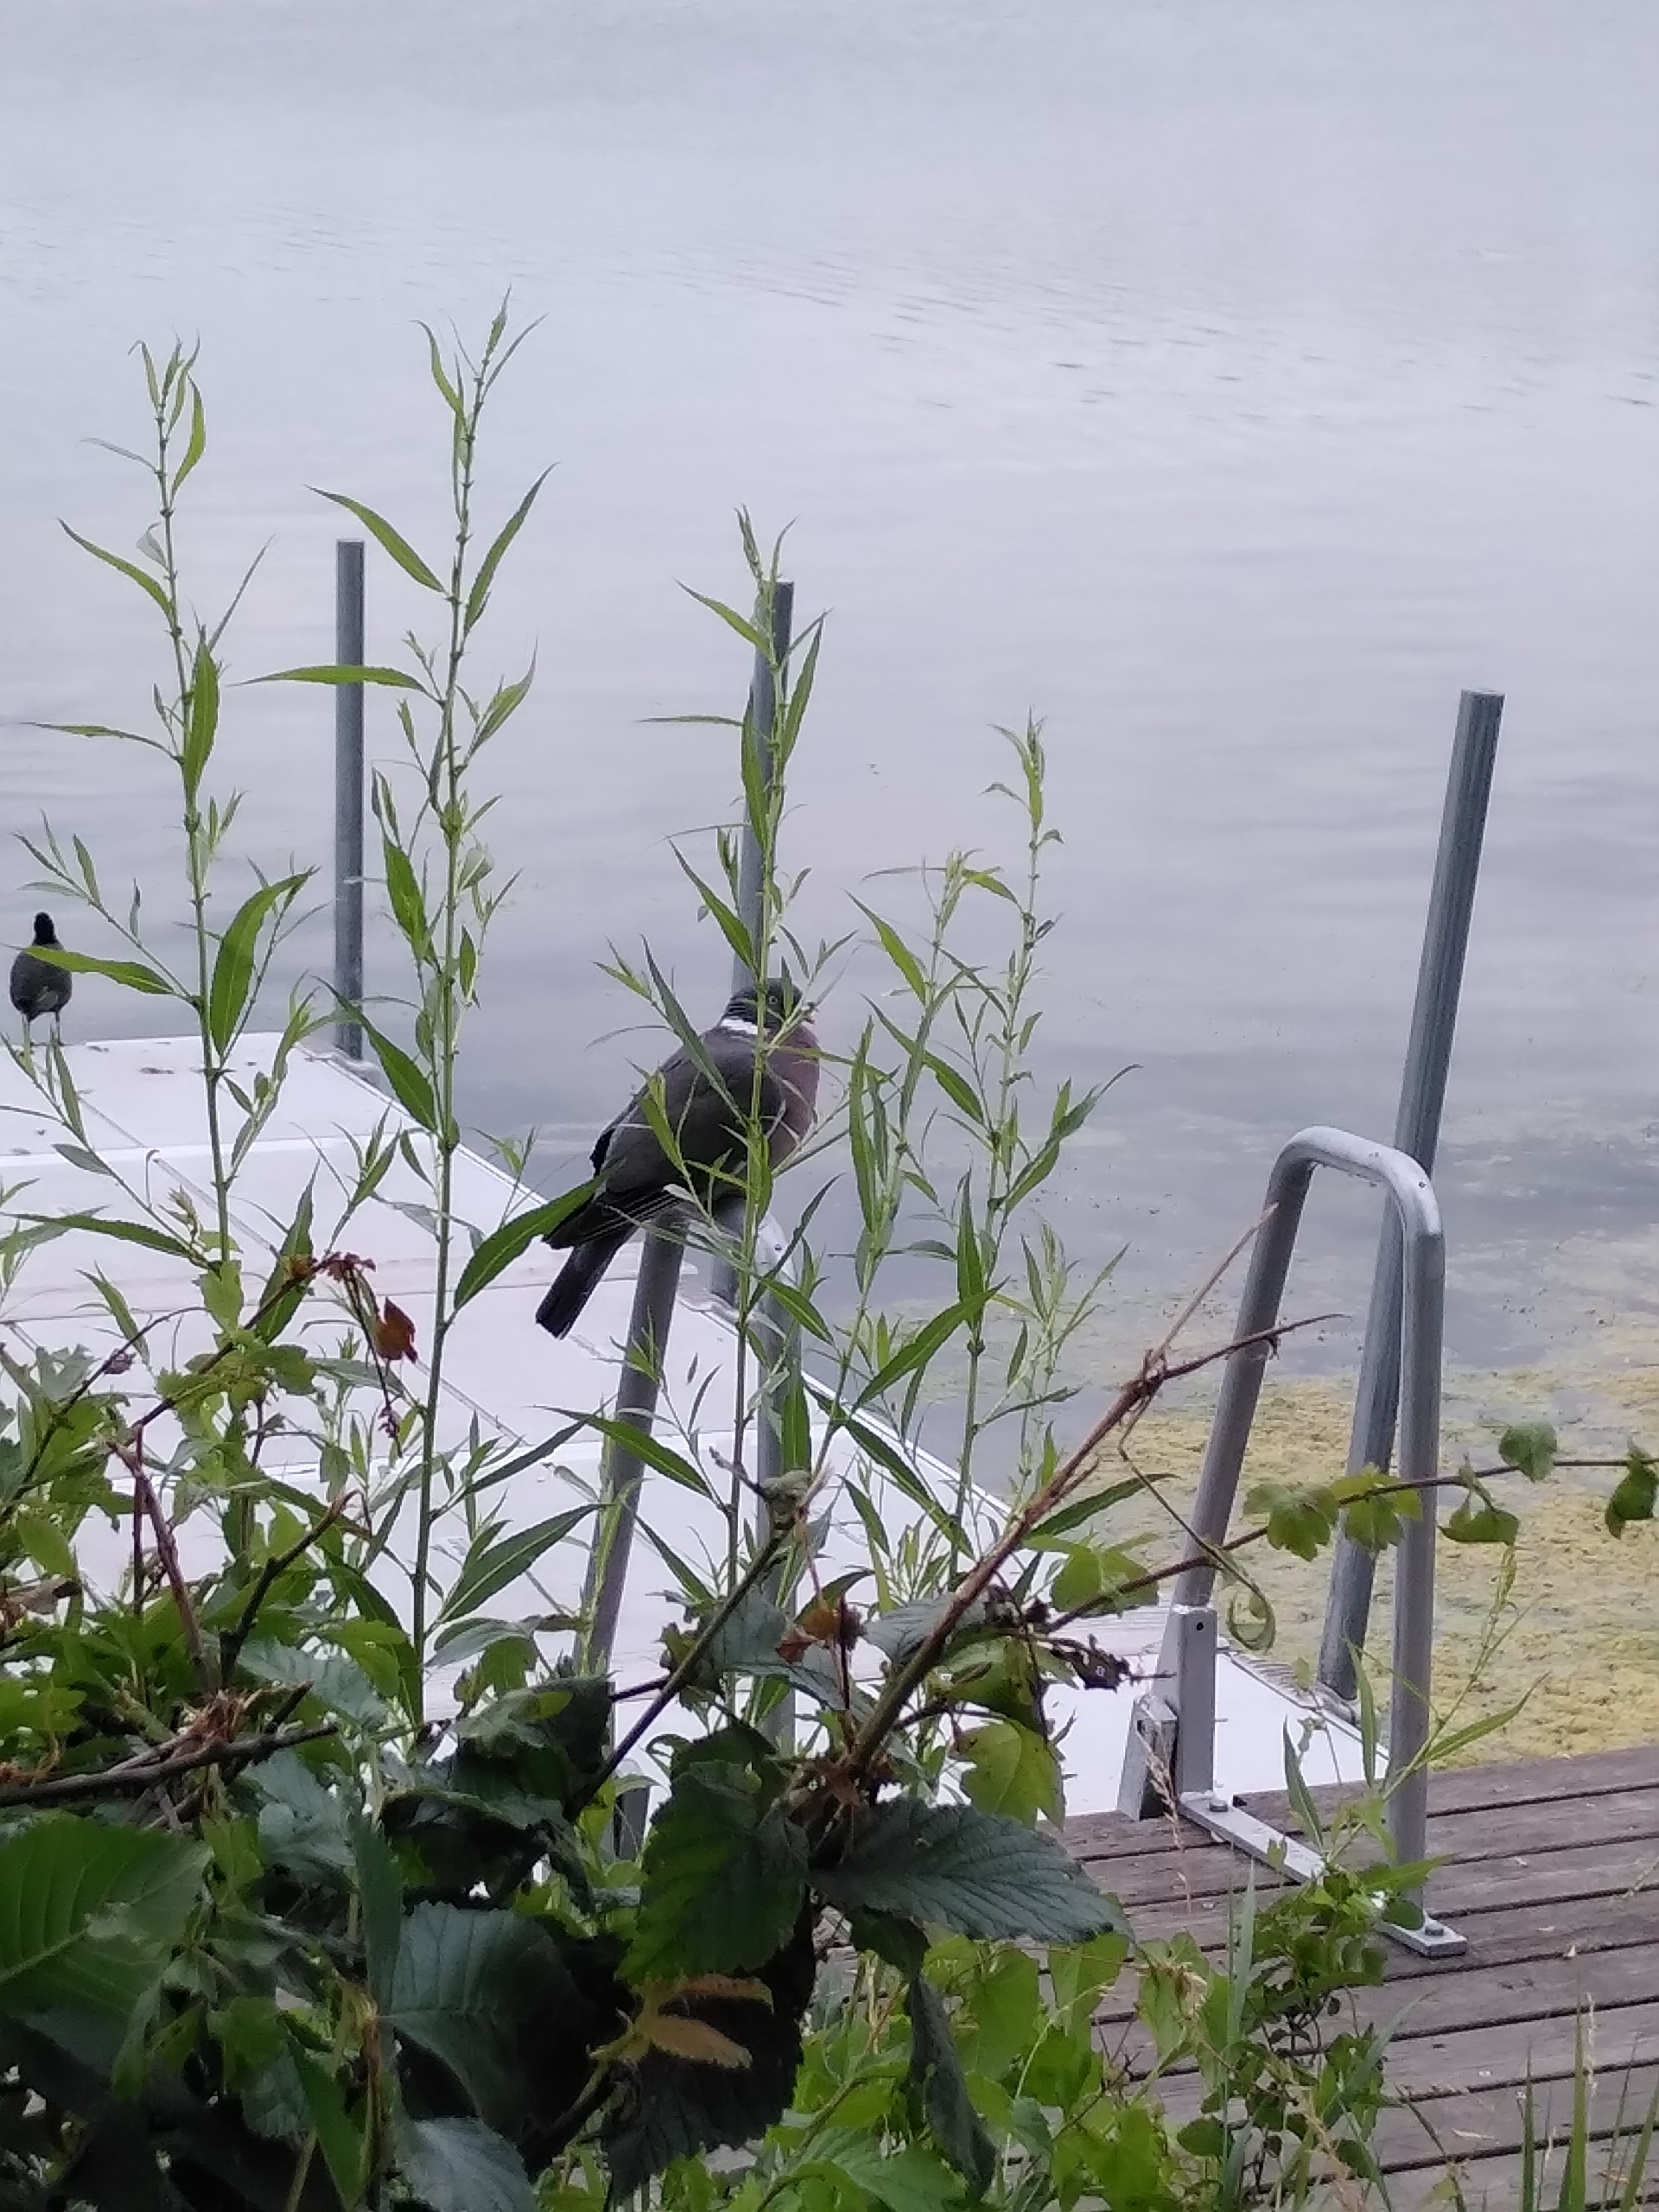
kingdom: Animalia
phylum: Chordata
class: Aves
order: Columbiformes
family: Columbidae
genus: Columba
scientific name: Columba palumbus
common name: Ringdue
